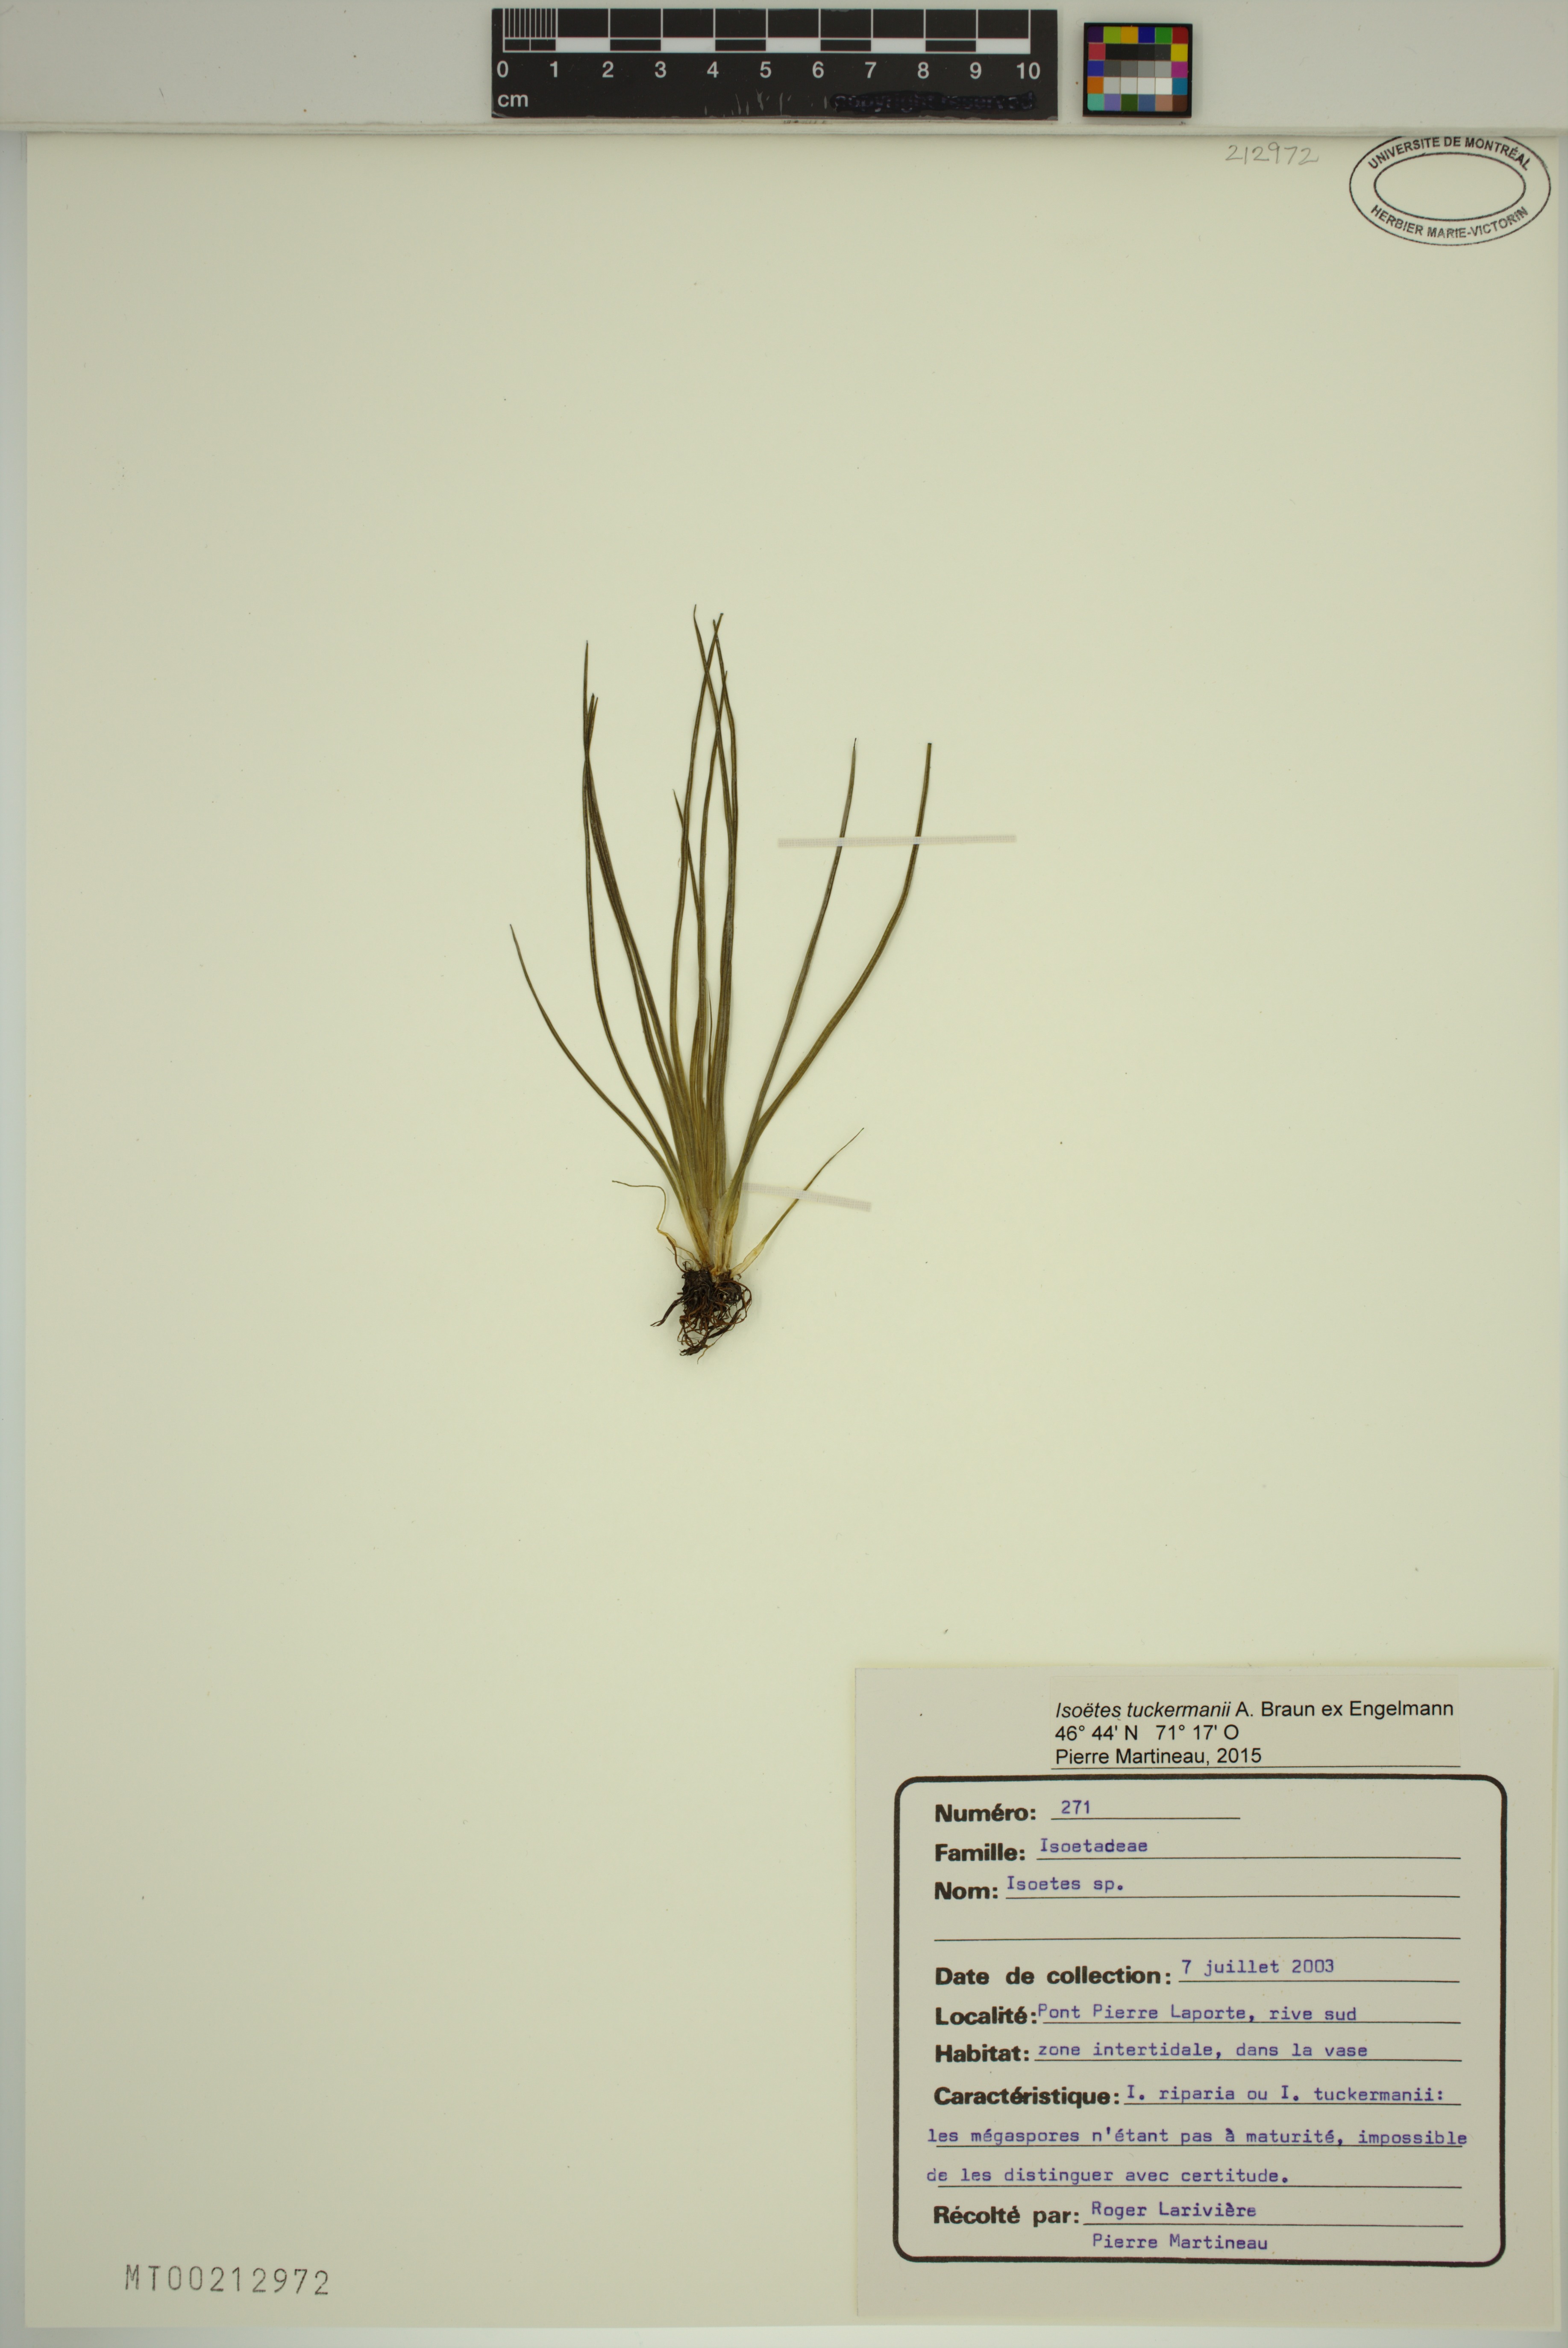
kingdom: Plantae
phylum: Tracheophyta
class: Lycopodiopsida
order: Isoetales
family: Isoetaceae
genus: Isoetes
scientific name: Isoetes laurentiana
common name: St. lawrence quillwort
